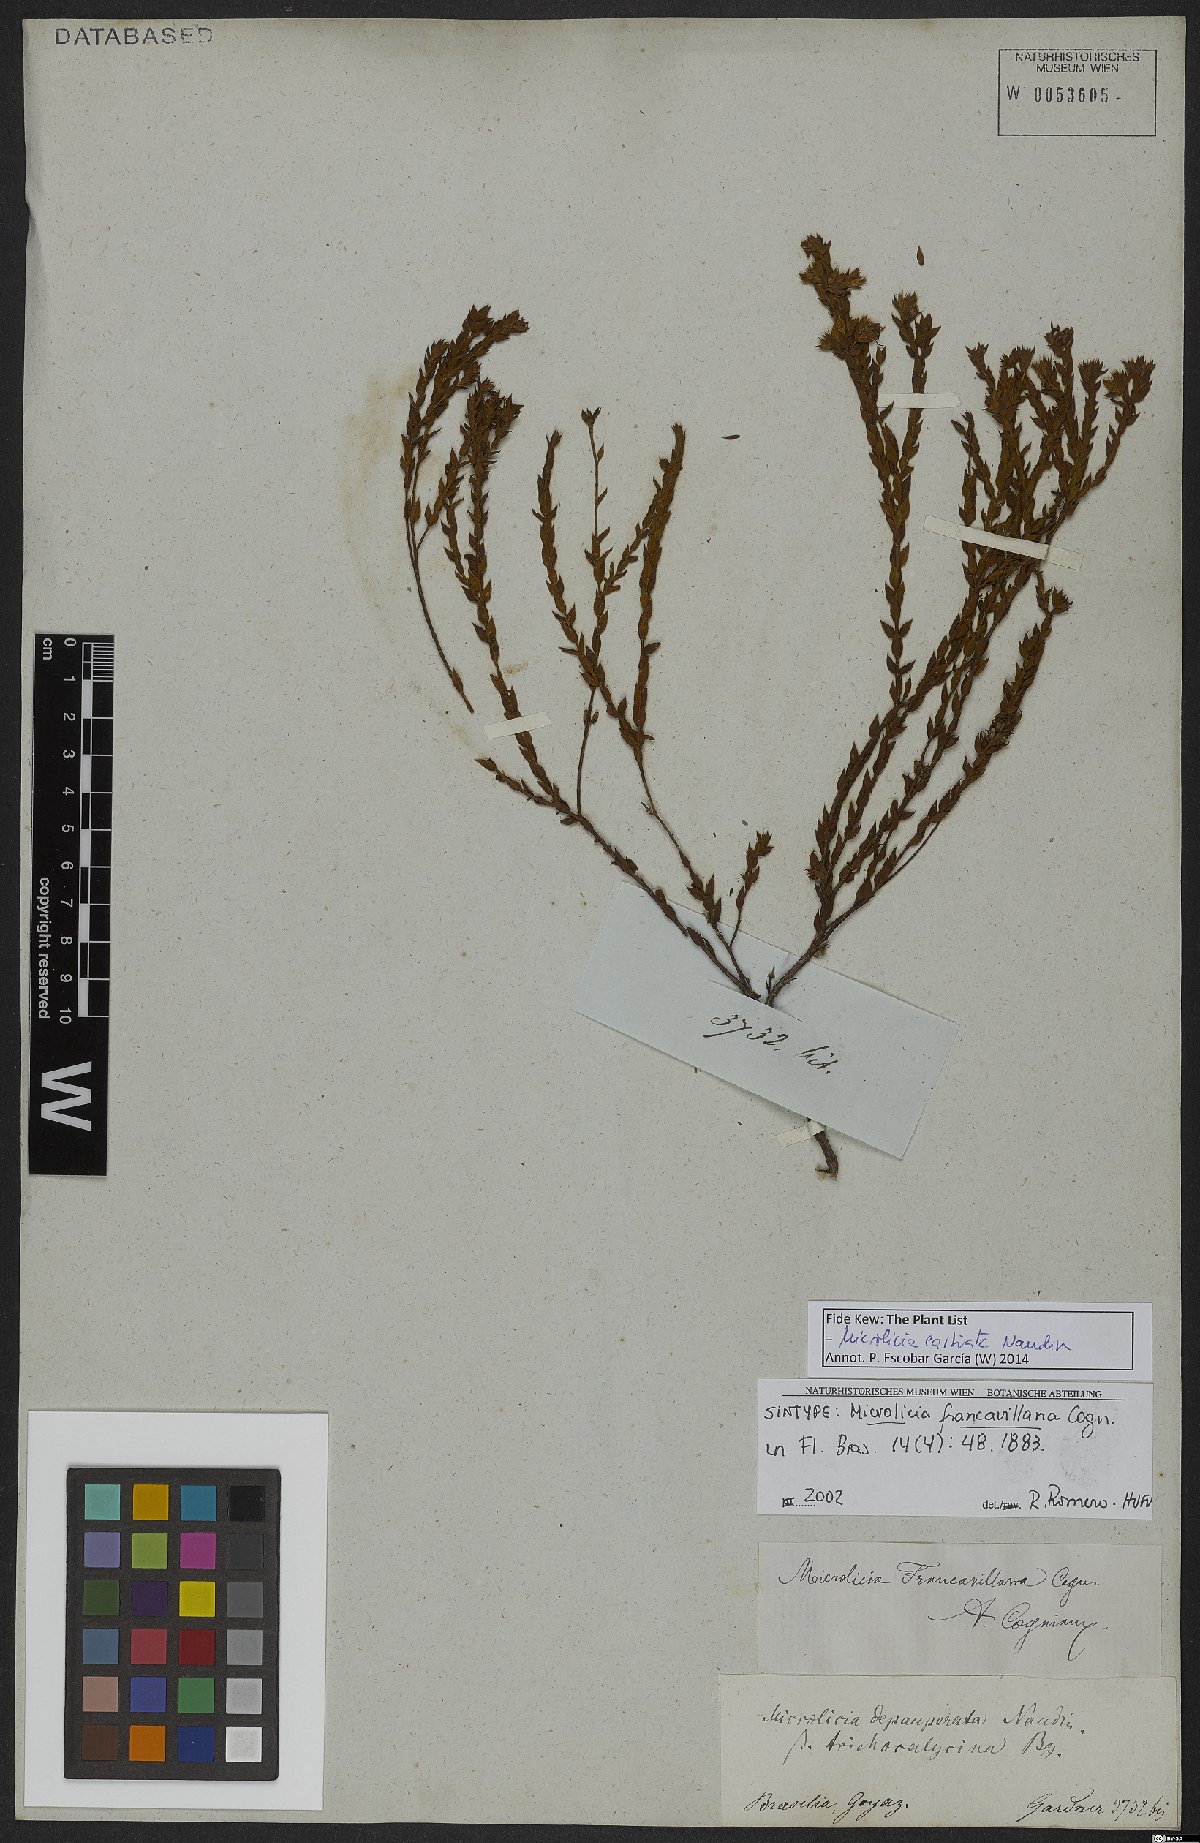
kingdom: Plantae
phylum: Tracheophyta
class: Magnoliopsida
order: Myrtales
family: Melastomataceae
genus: Microlicia
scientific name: Microlicia castrata
